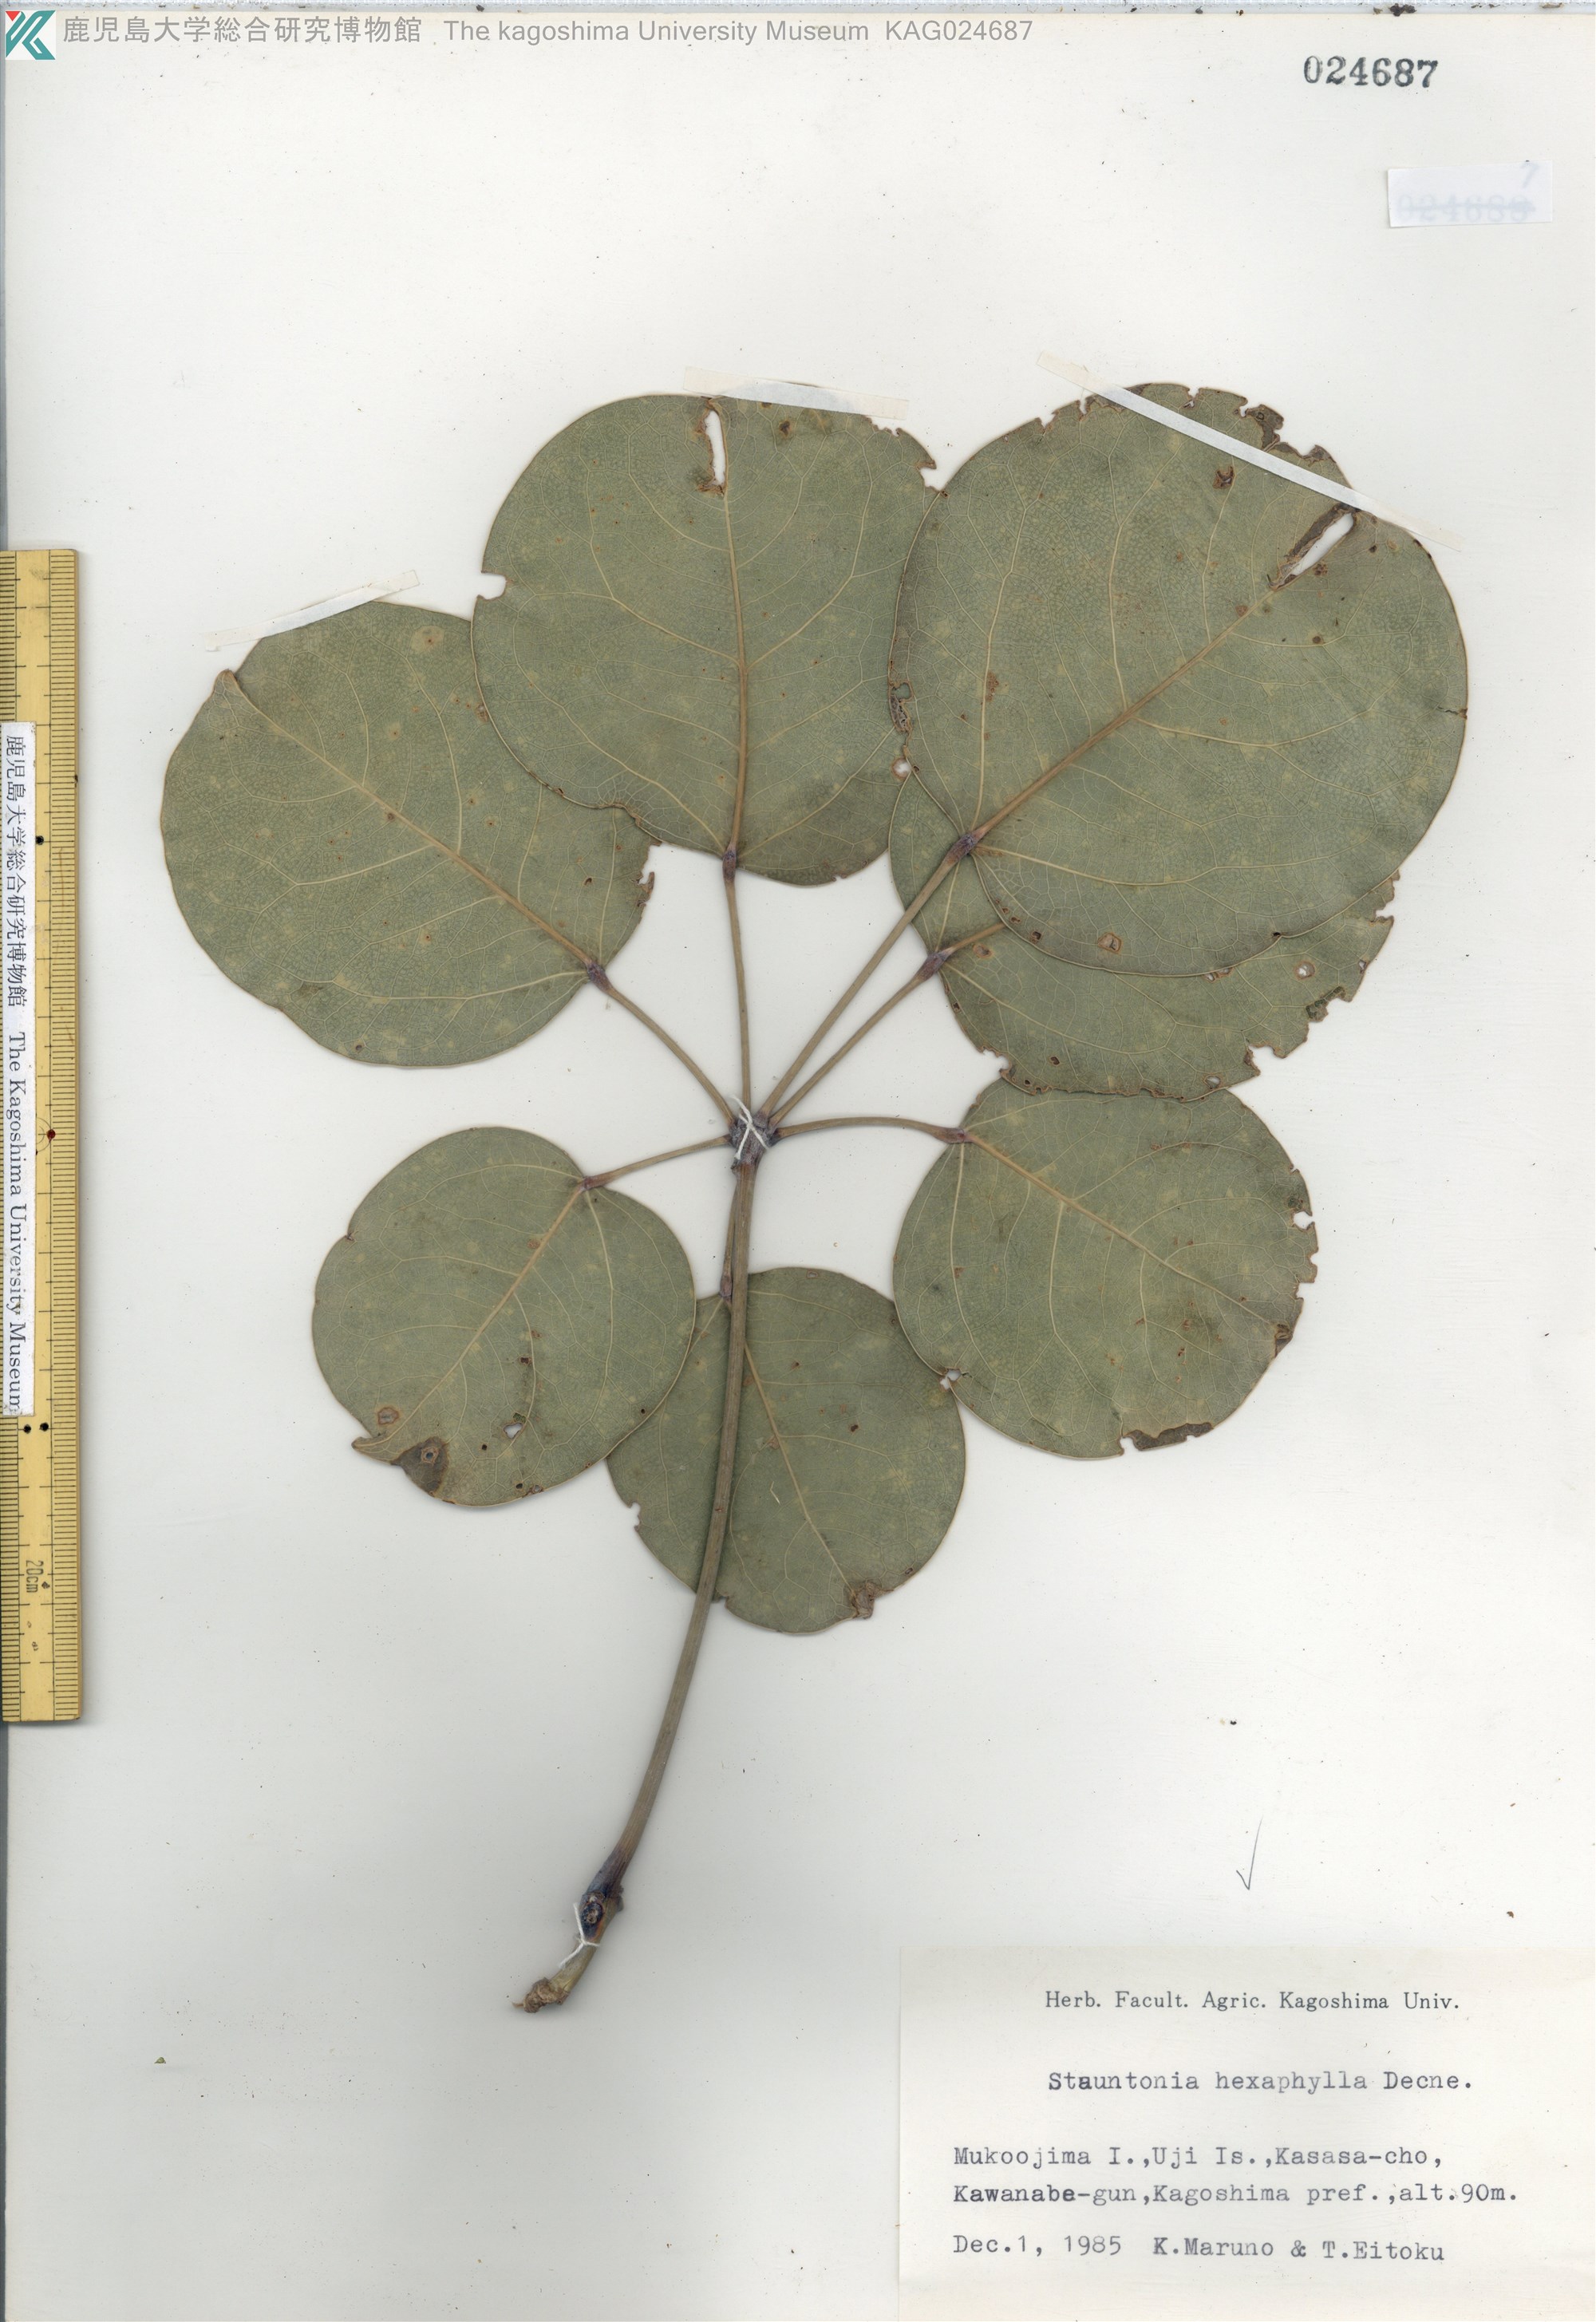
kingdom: Plantae
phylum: Tracheophyta
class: Magnoliopsida
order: Ranunculales
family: Lardizabalaceae
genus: Stauntonia
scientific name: Stauntonia hexaphylla
